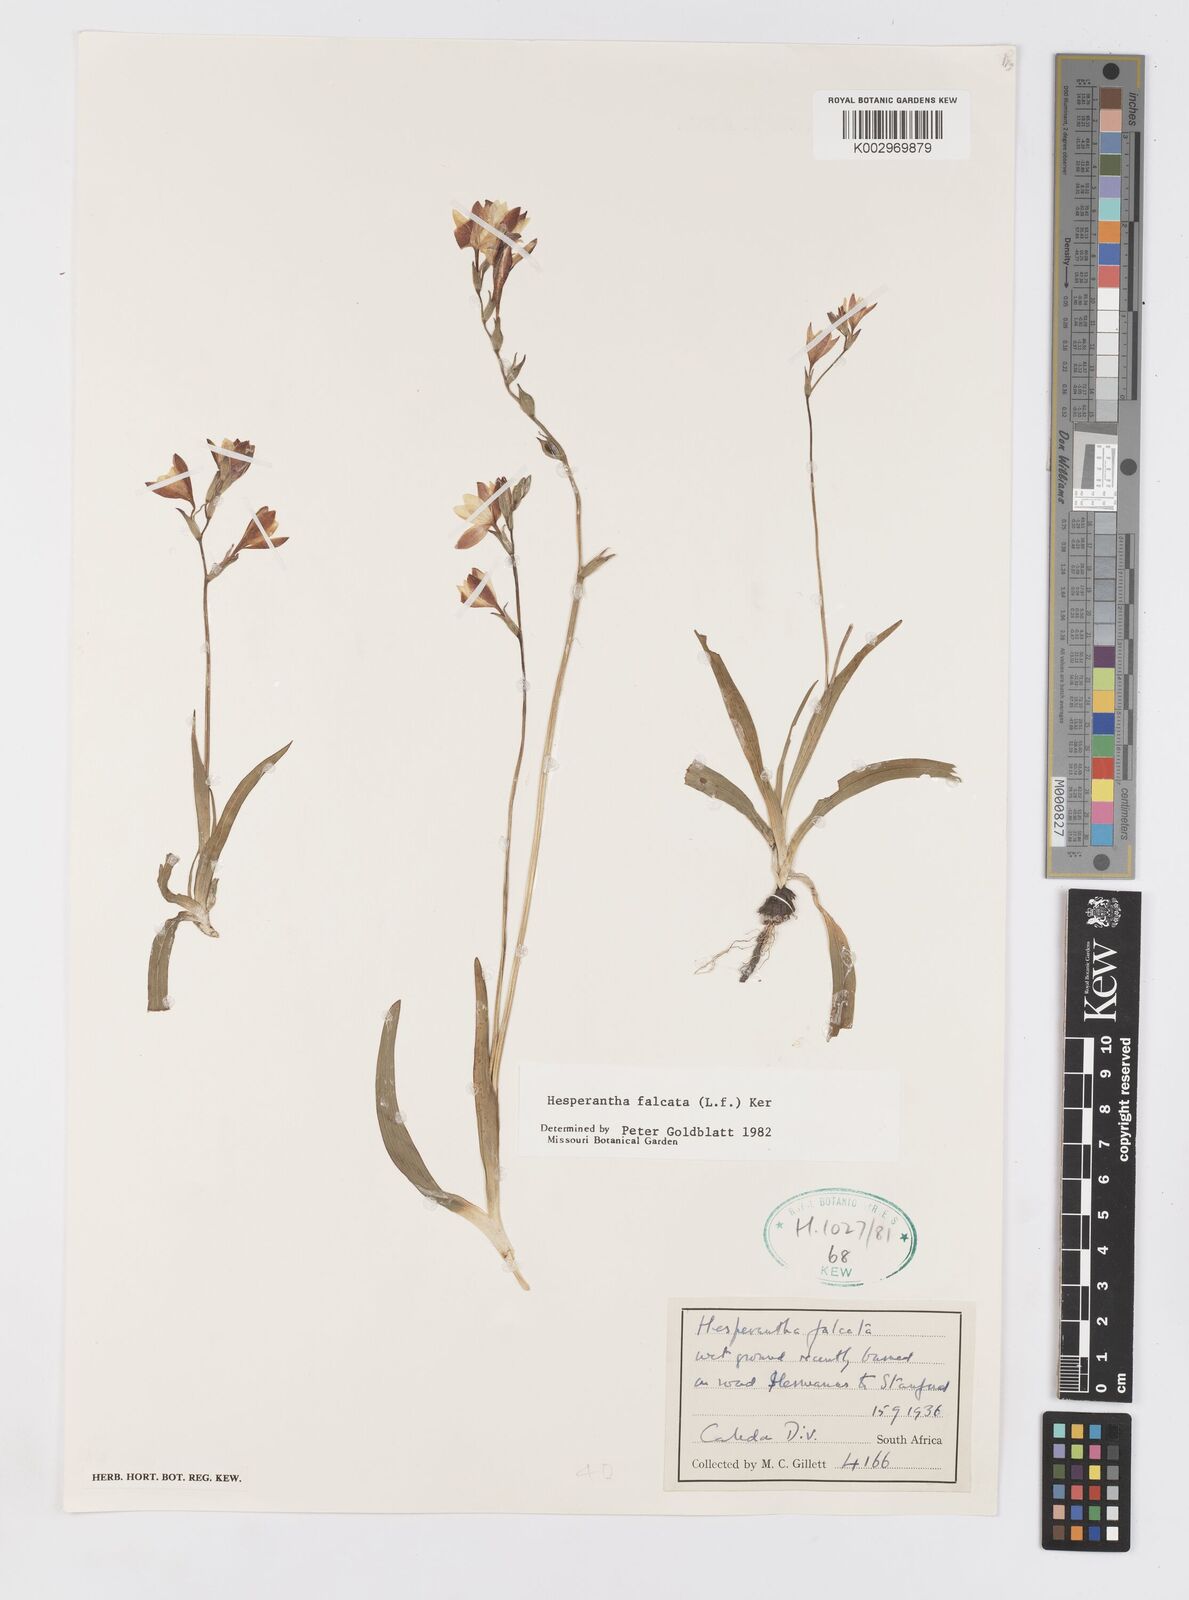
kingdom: Plantae
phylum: Tracheophyta
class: Liliopsida
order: Asparagales
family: Iridaceae
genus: Hesperantha
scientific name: Hesperantha falcata
